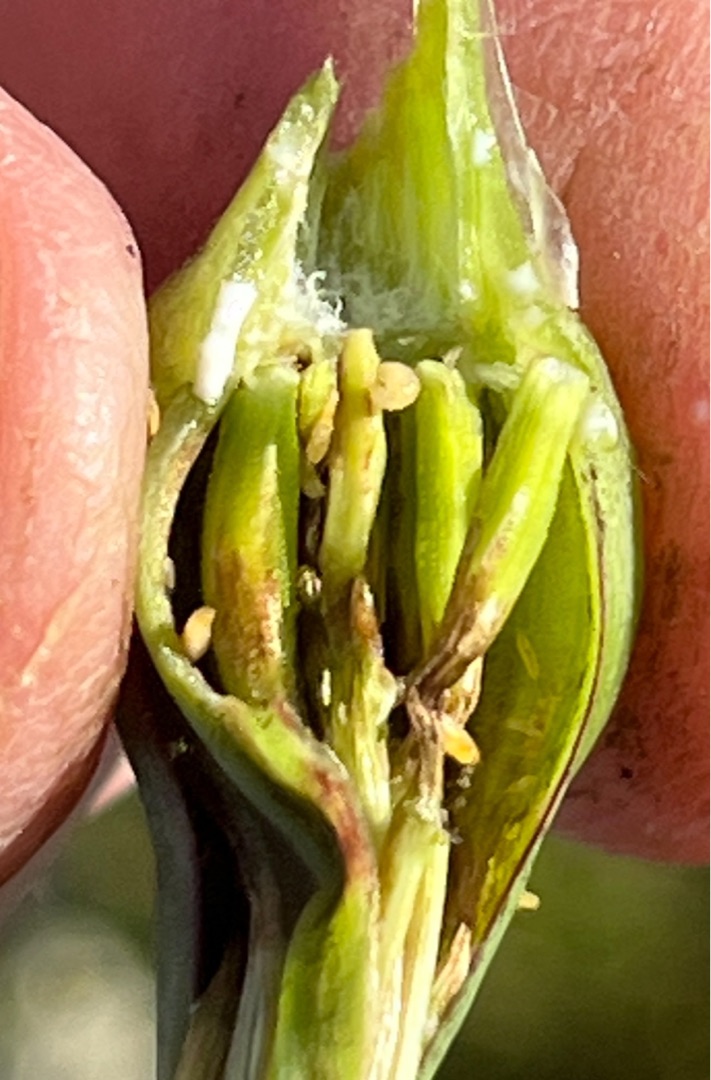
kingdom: Animalia
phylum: Arthropoda
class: Insecta
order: Diptera
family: Cecidomyiidae
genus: Contarinia
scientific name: Contarinia tragopogonis
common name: Gedeskæggalmyg
